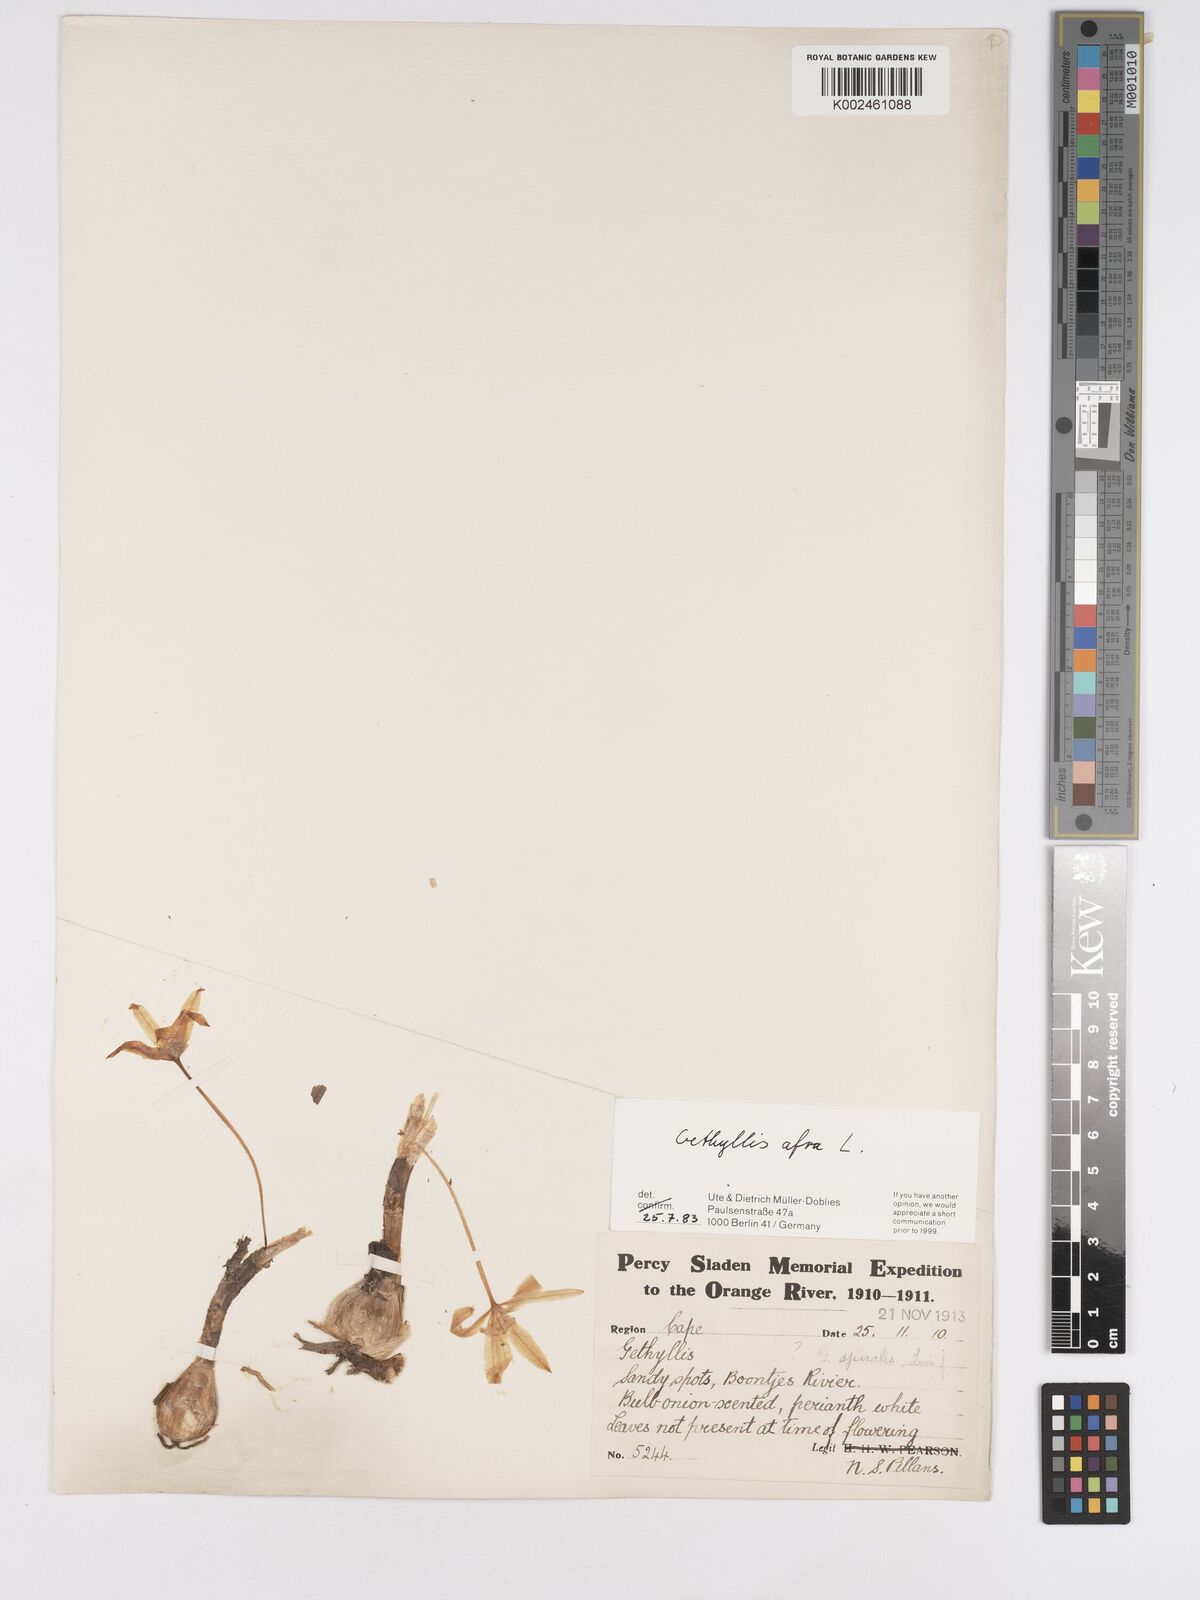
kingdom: Plantae
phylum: Tracheophyta
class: Liliopsida
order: Asparagales
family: Amaryllidaceae
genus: Gethyllis
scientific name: Gethyllis afra
